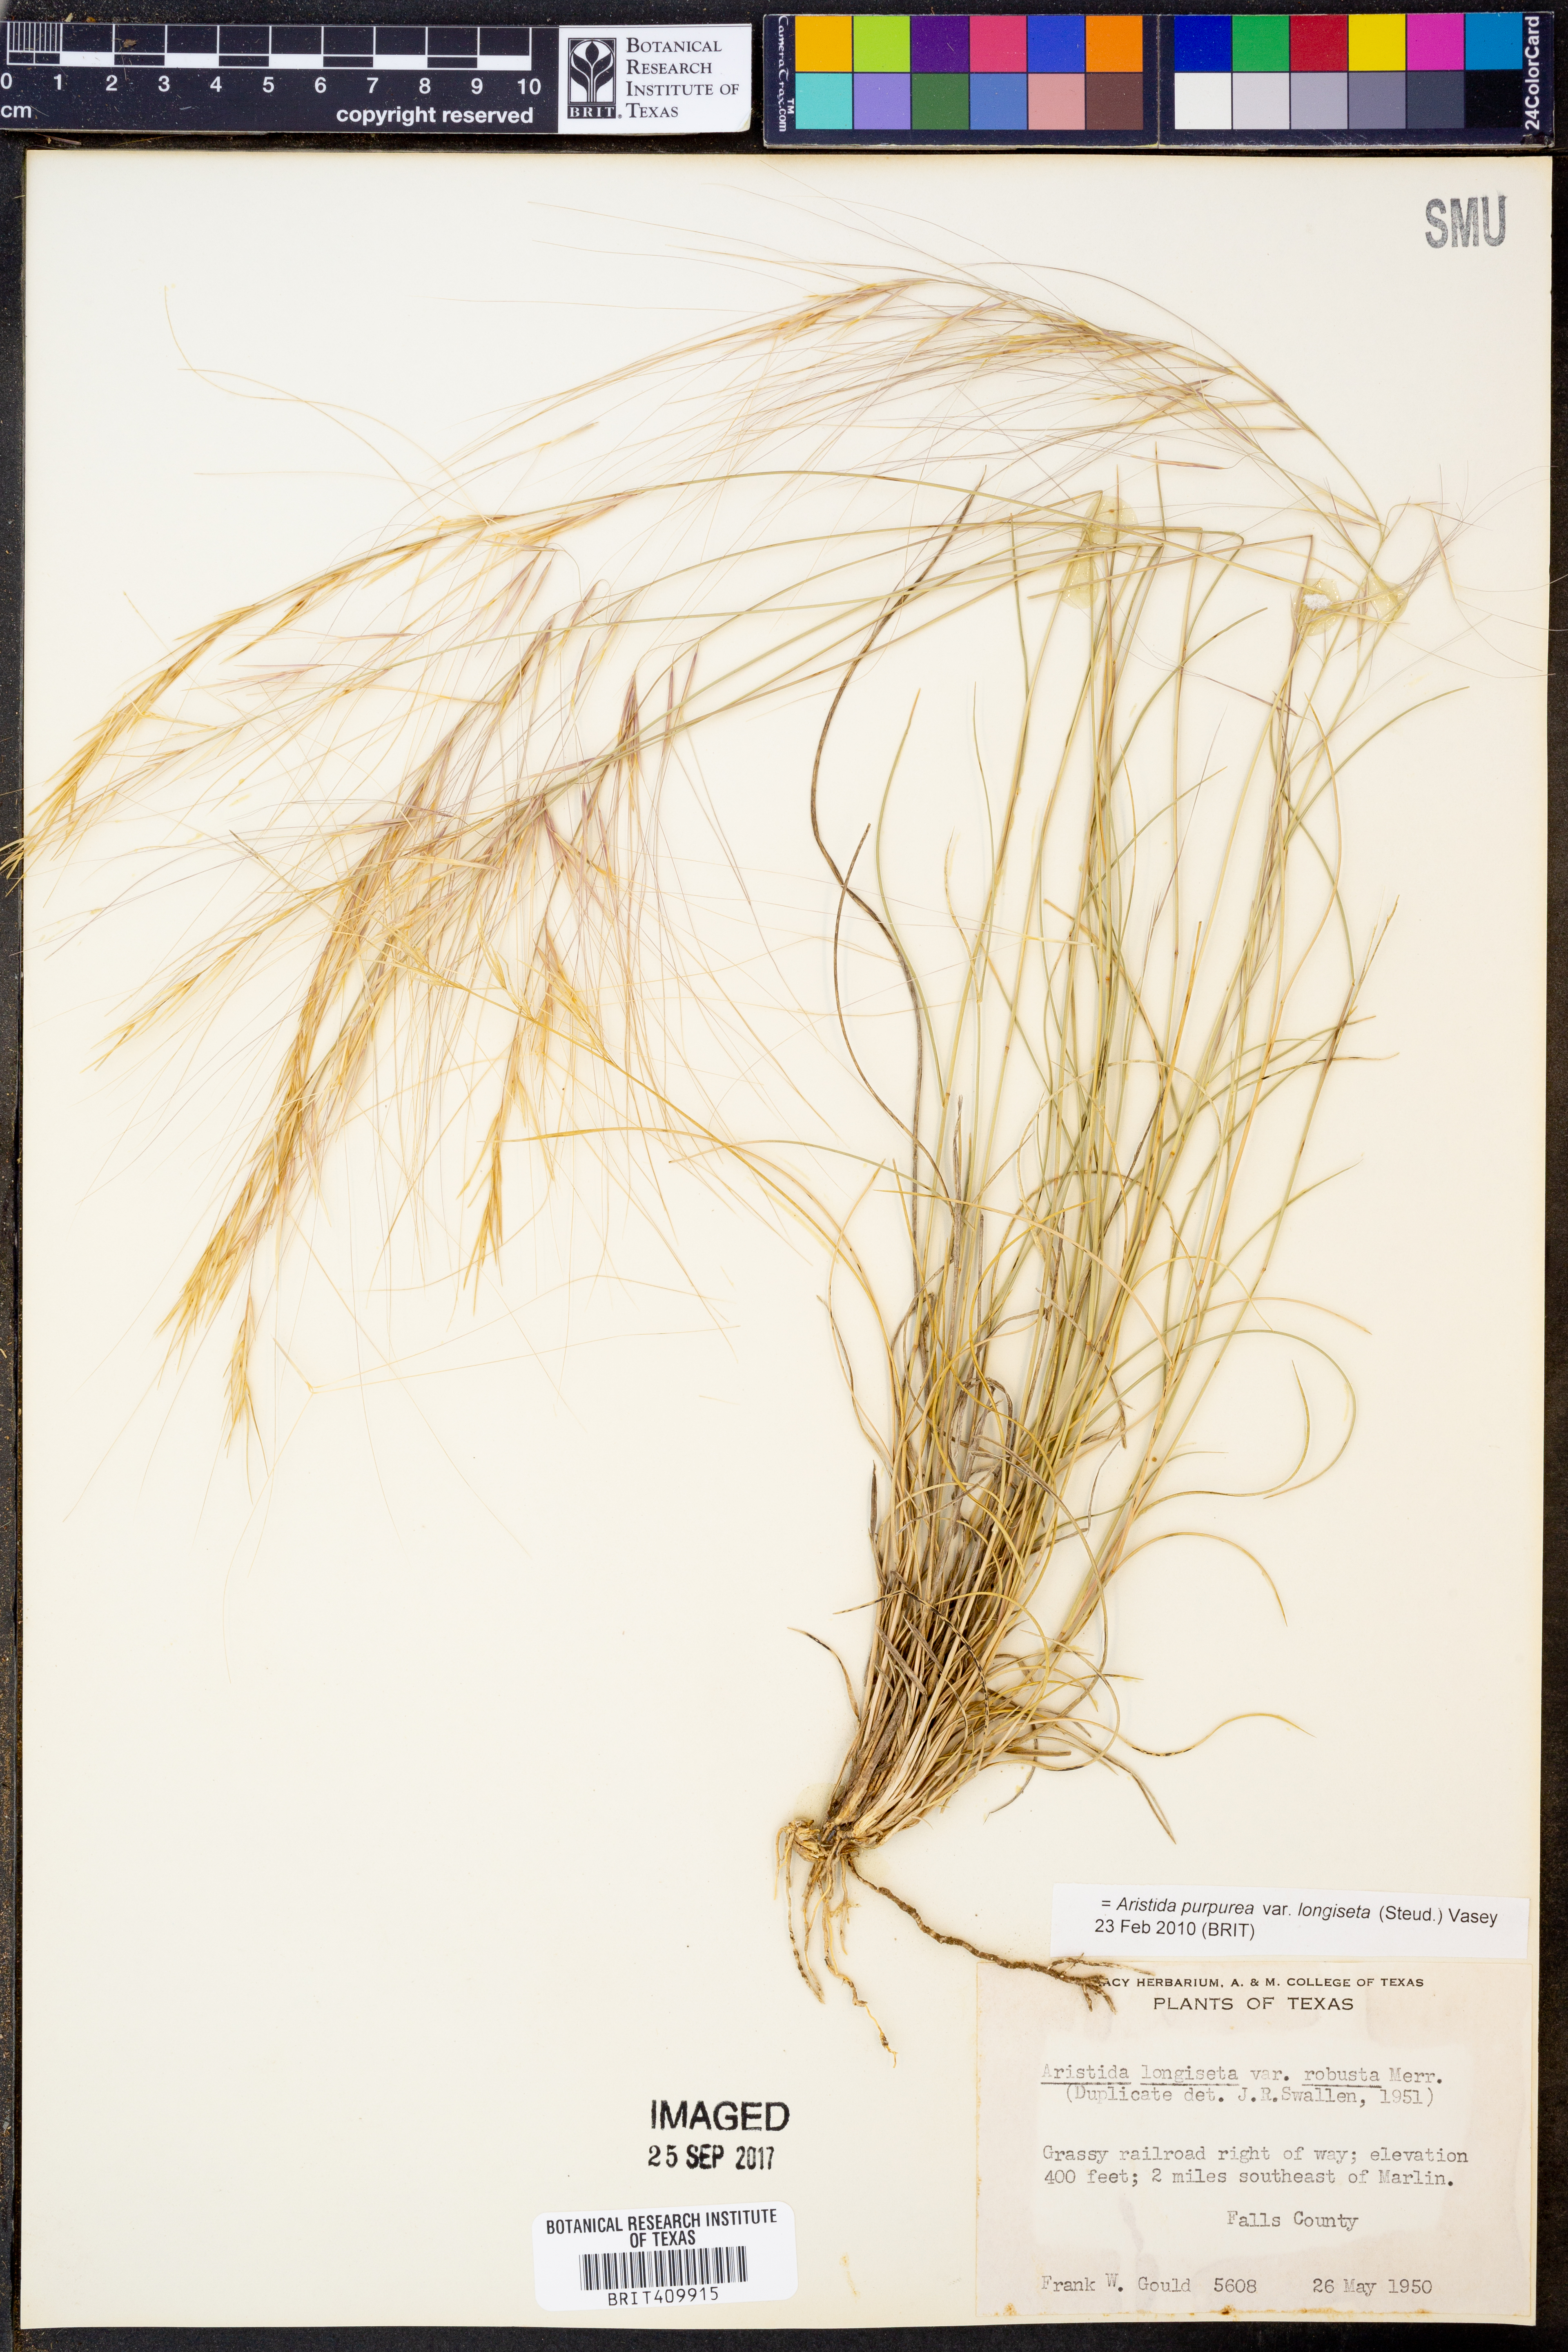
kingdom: Plantae
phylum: Tracheophyta
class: Liliopsida
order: Poales
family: Poaceae
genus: Aristida
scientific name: Aristida longiseta
